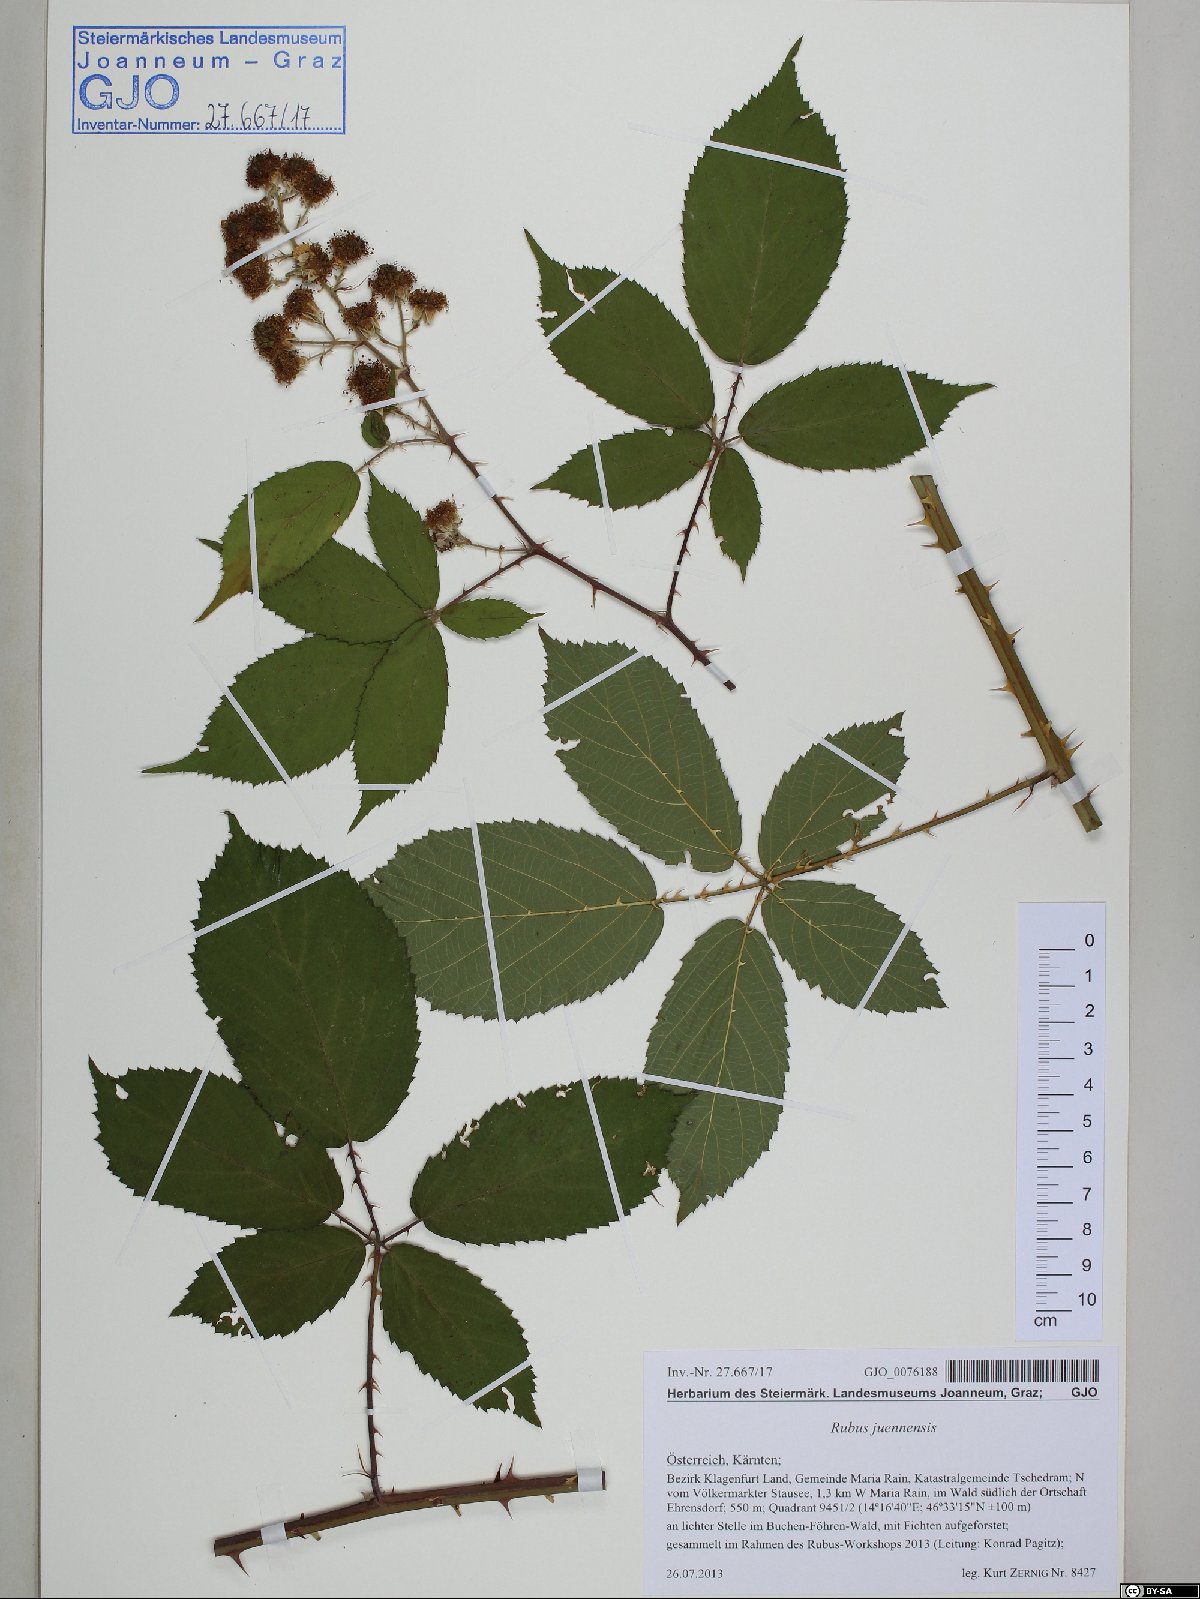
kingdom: Plantae
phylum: Tracheophyta
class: Magnoliopsida
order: Rosales
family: Rosaceae
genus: Rubus
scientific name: Rubus juennensis
